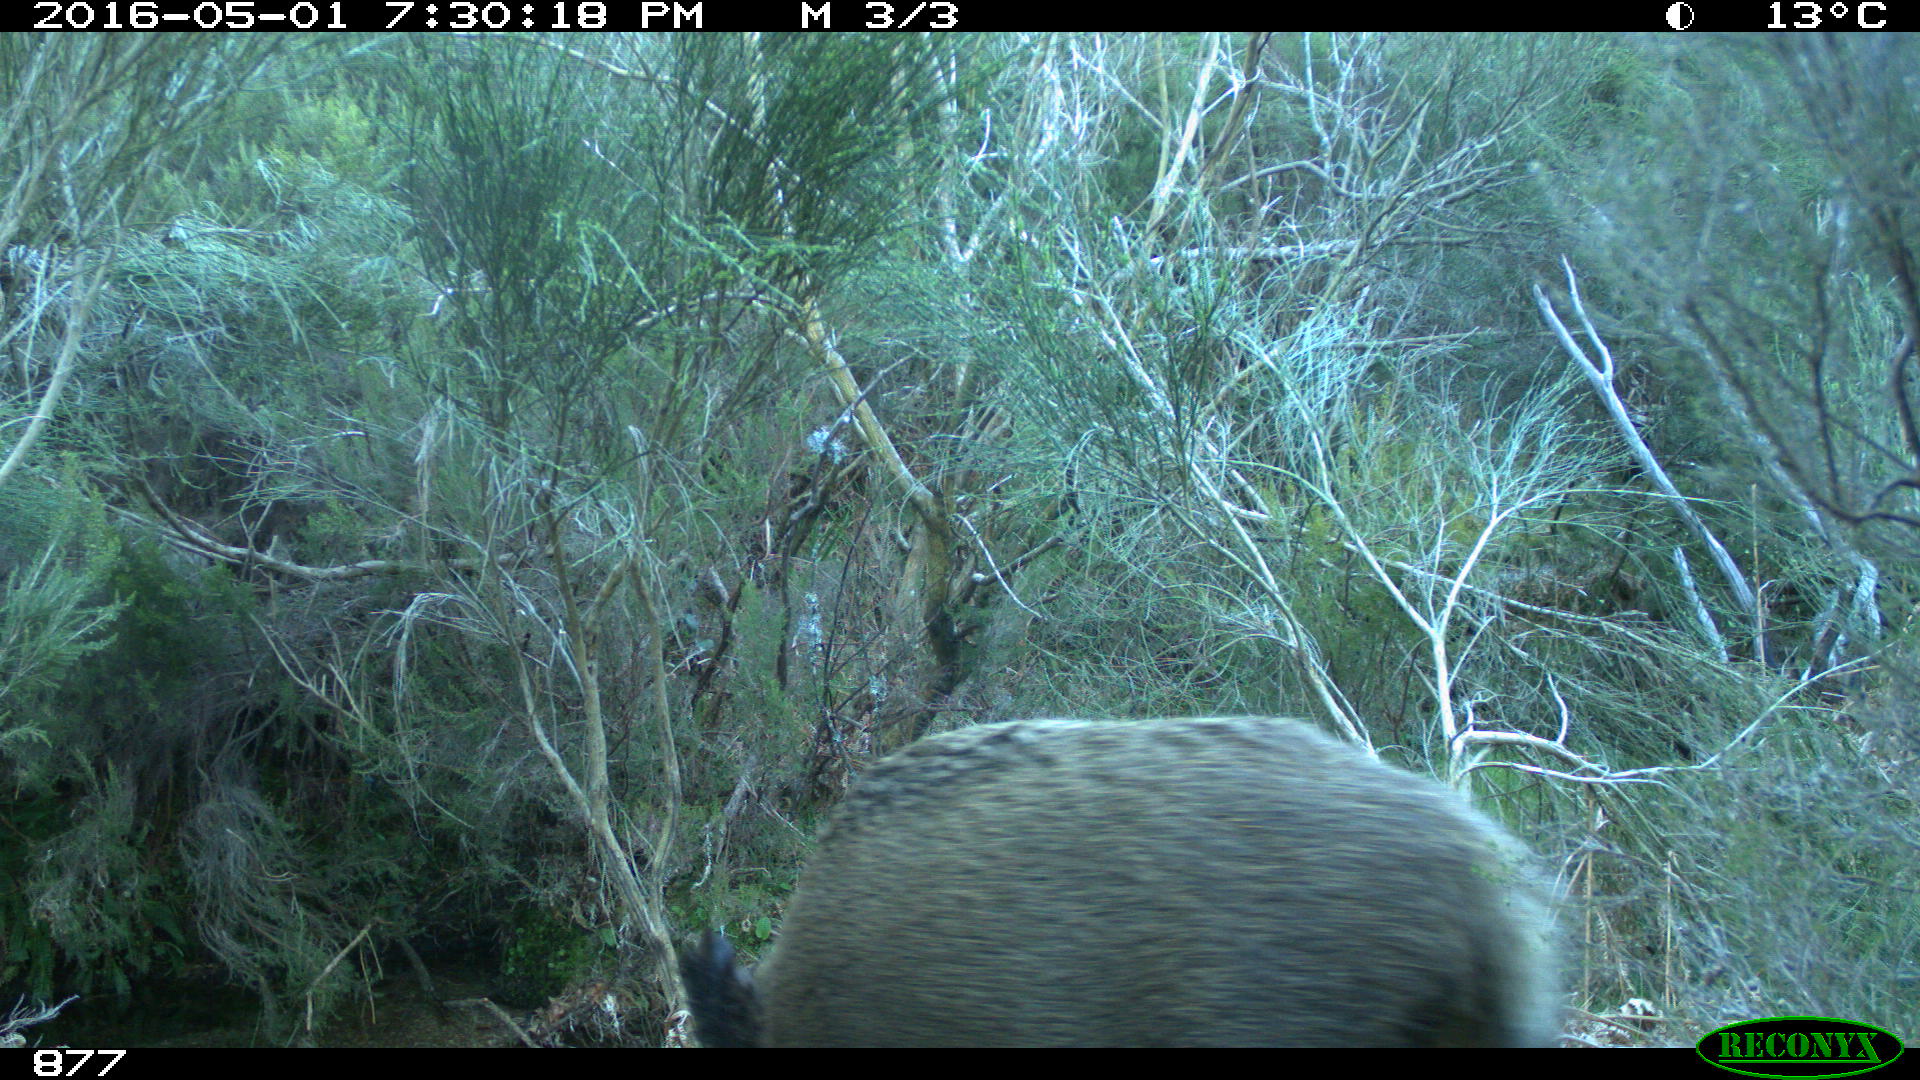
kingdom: Animalia
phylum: Chordata
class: Mammalia
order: Artiodactyla
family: Suidae
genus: Sus
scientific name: Sus scrofa
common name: Wild boar
